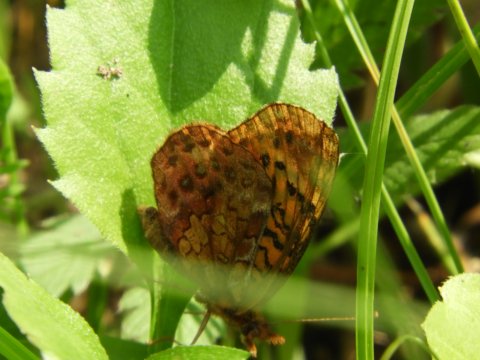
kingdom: Animalia
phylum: Arthropoda
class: Insecta
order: Lepidoptera
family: Nymphalidae
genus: Clossiana
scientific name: Clossiana toddi
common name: Meadow Fritillary
